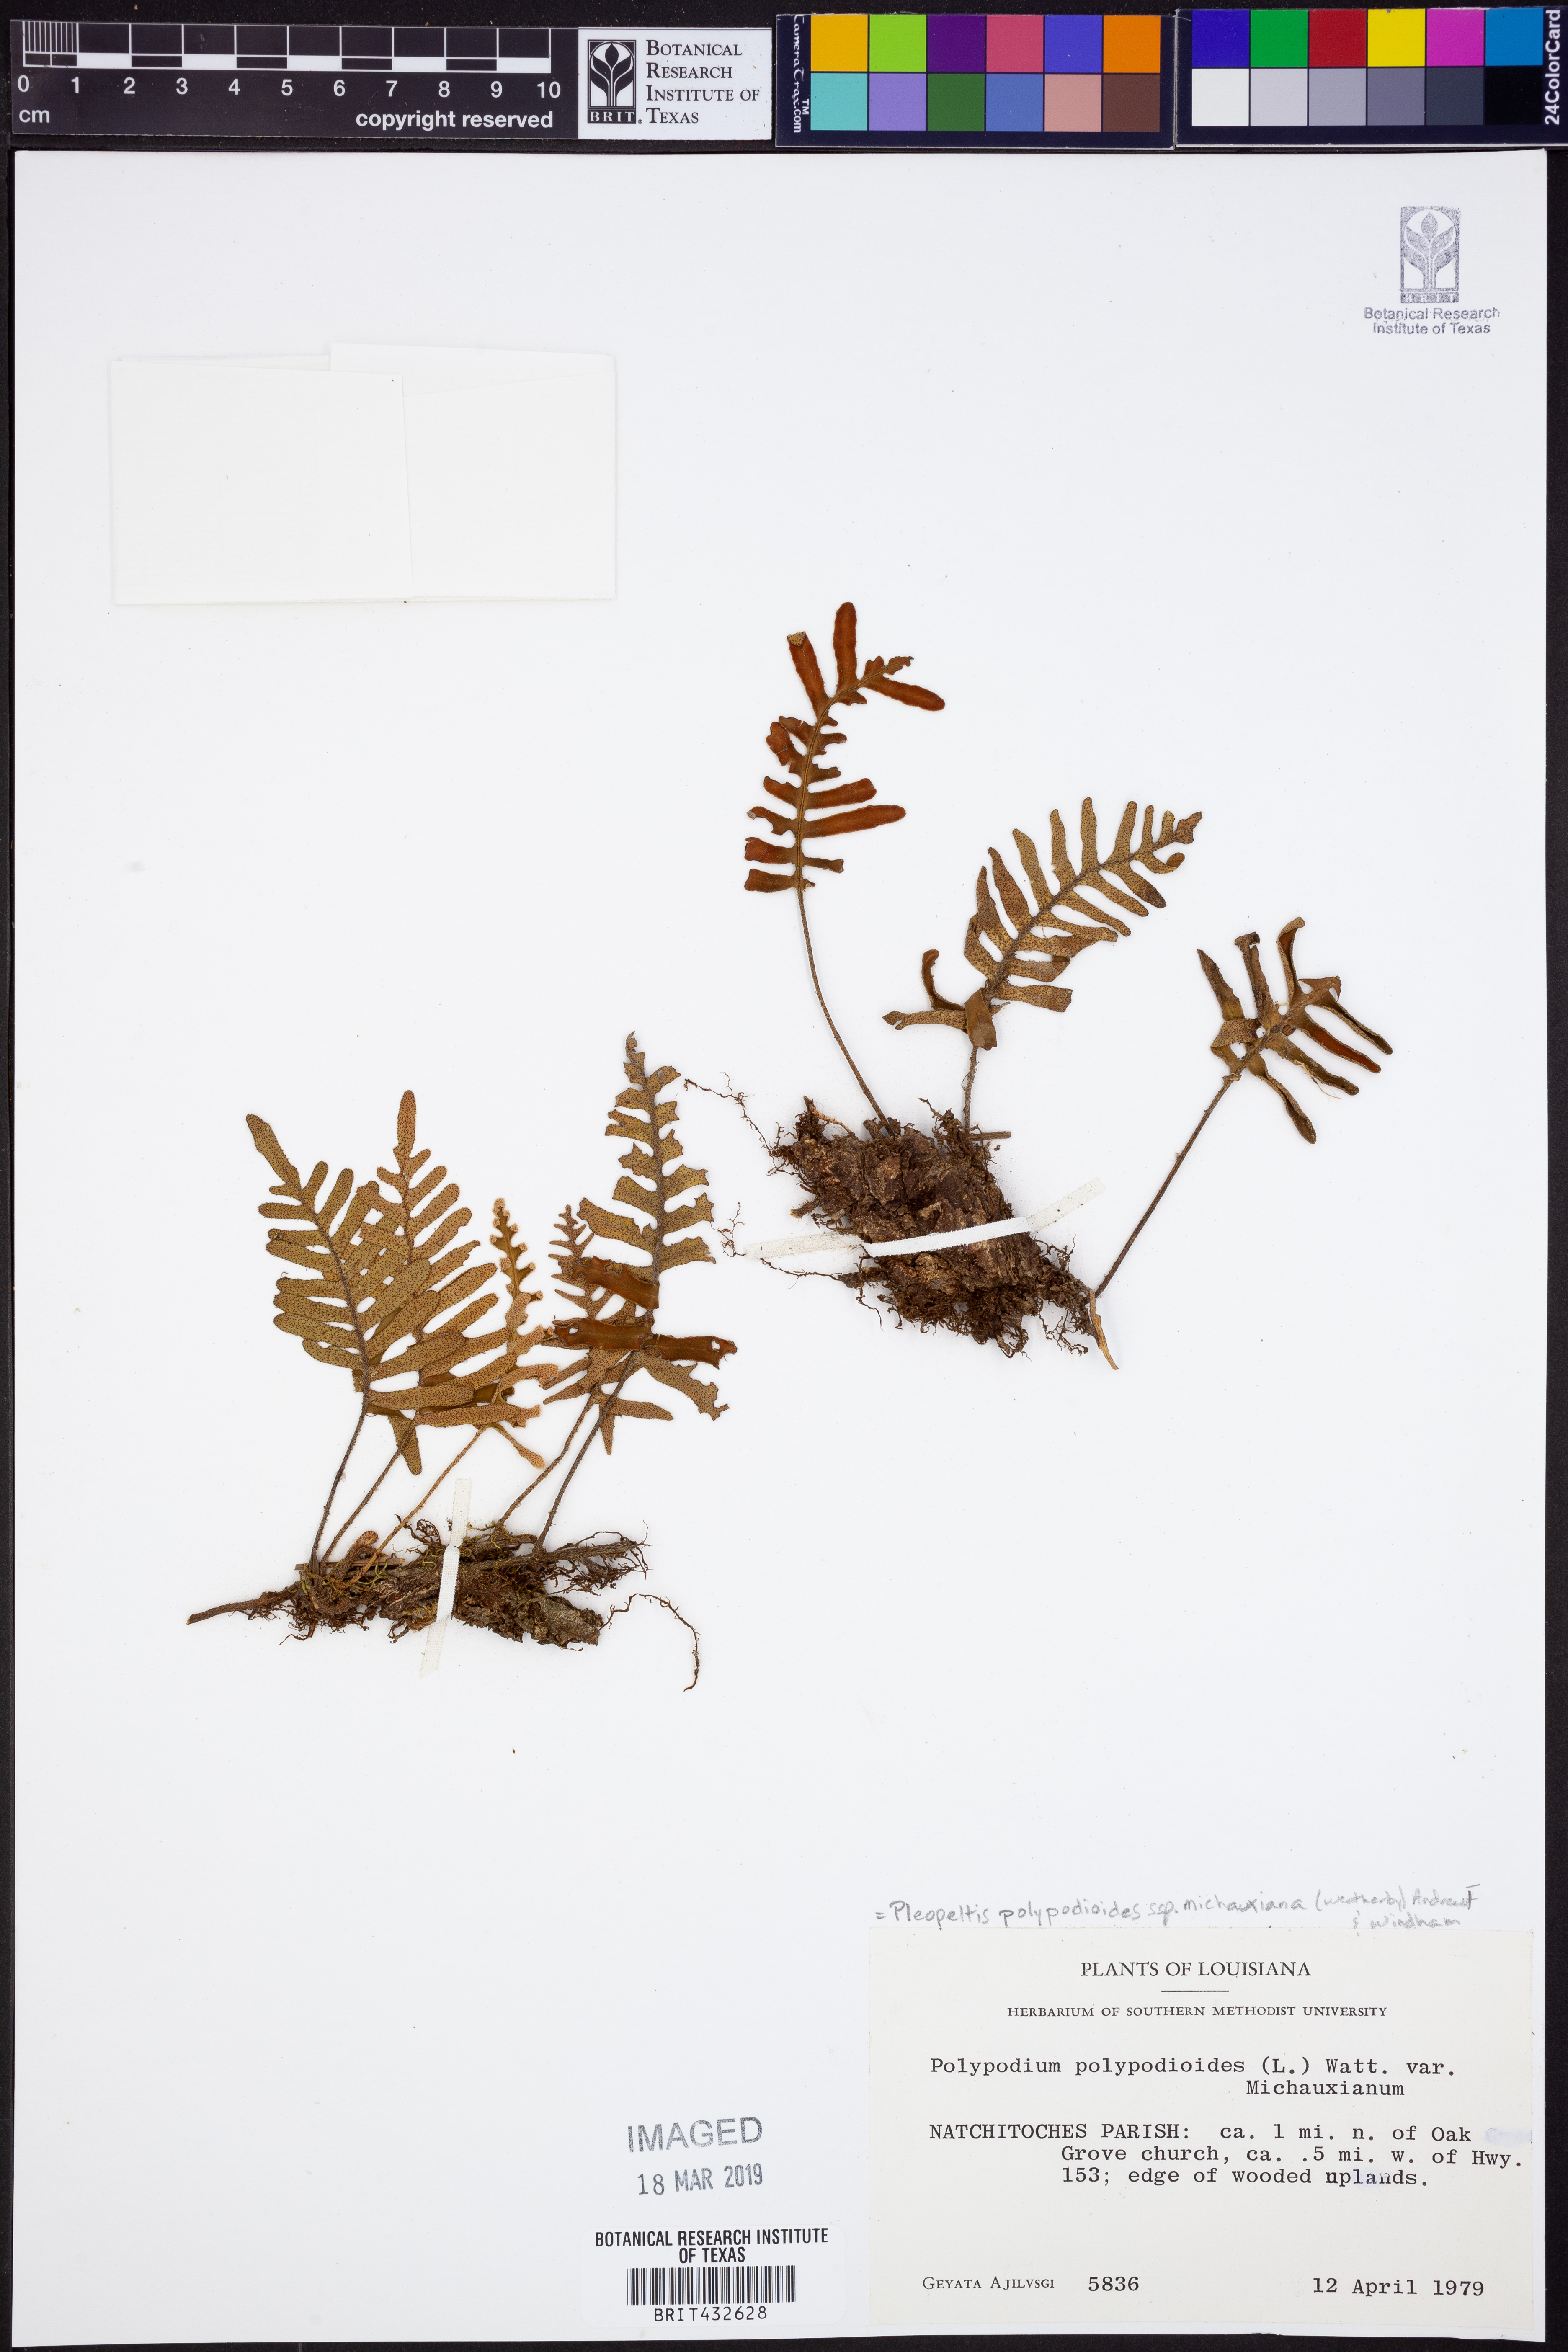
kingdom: Plantae
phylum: Tracheophyta
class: Polypodiopsida
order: Polypodiales
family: Polypodiaceae
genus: Pleopeltis
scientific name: Pleopeltis michauxiana
